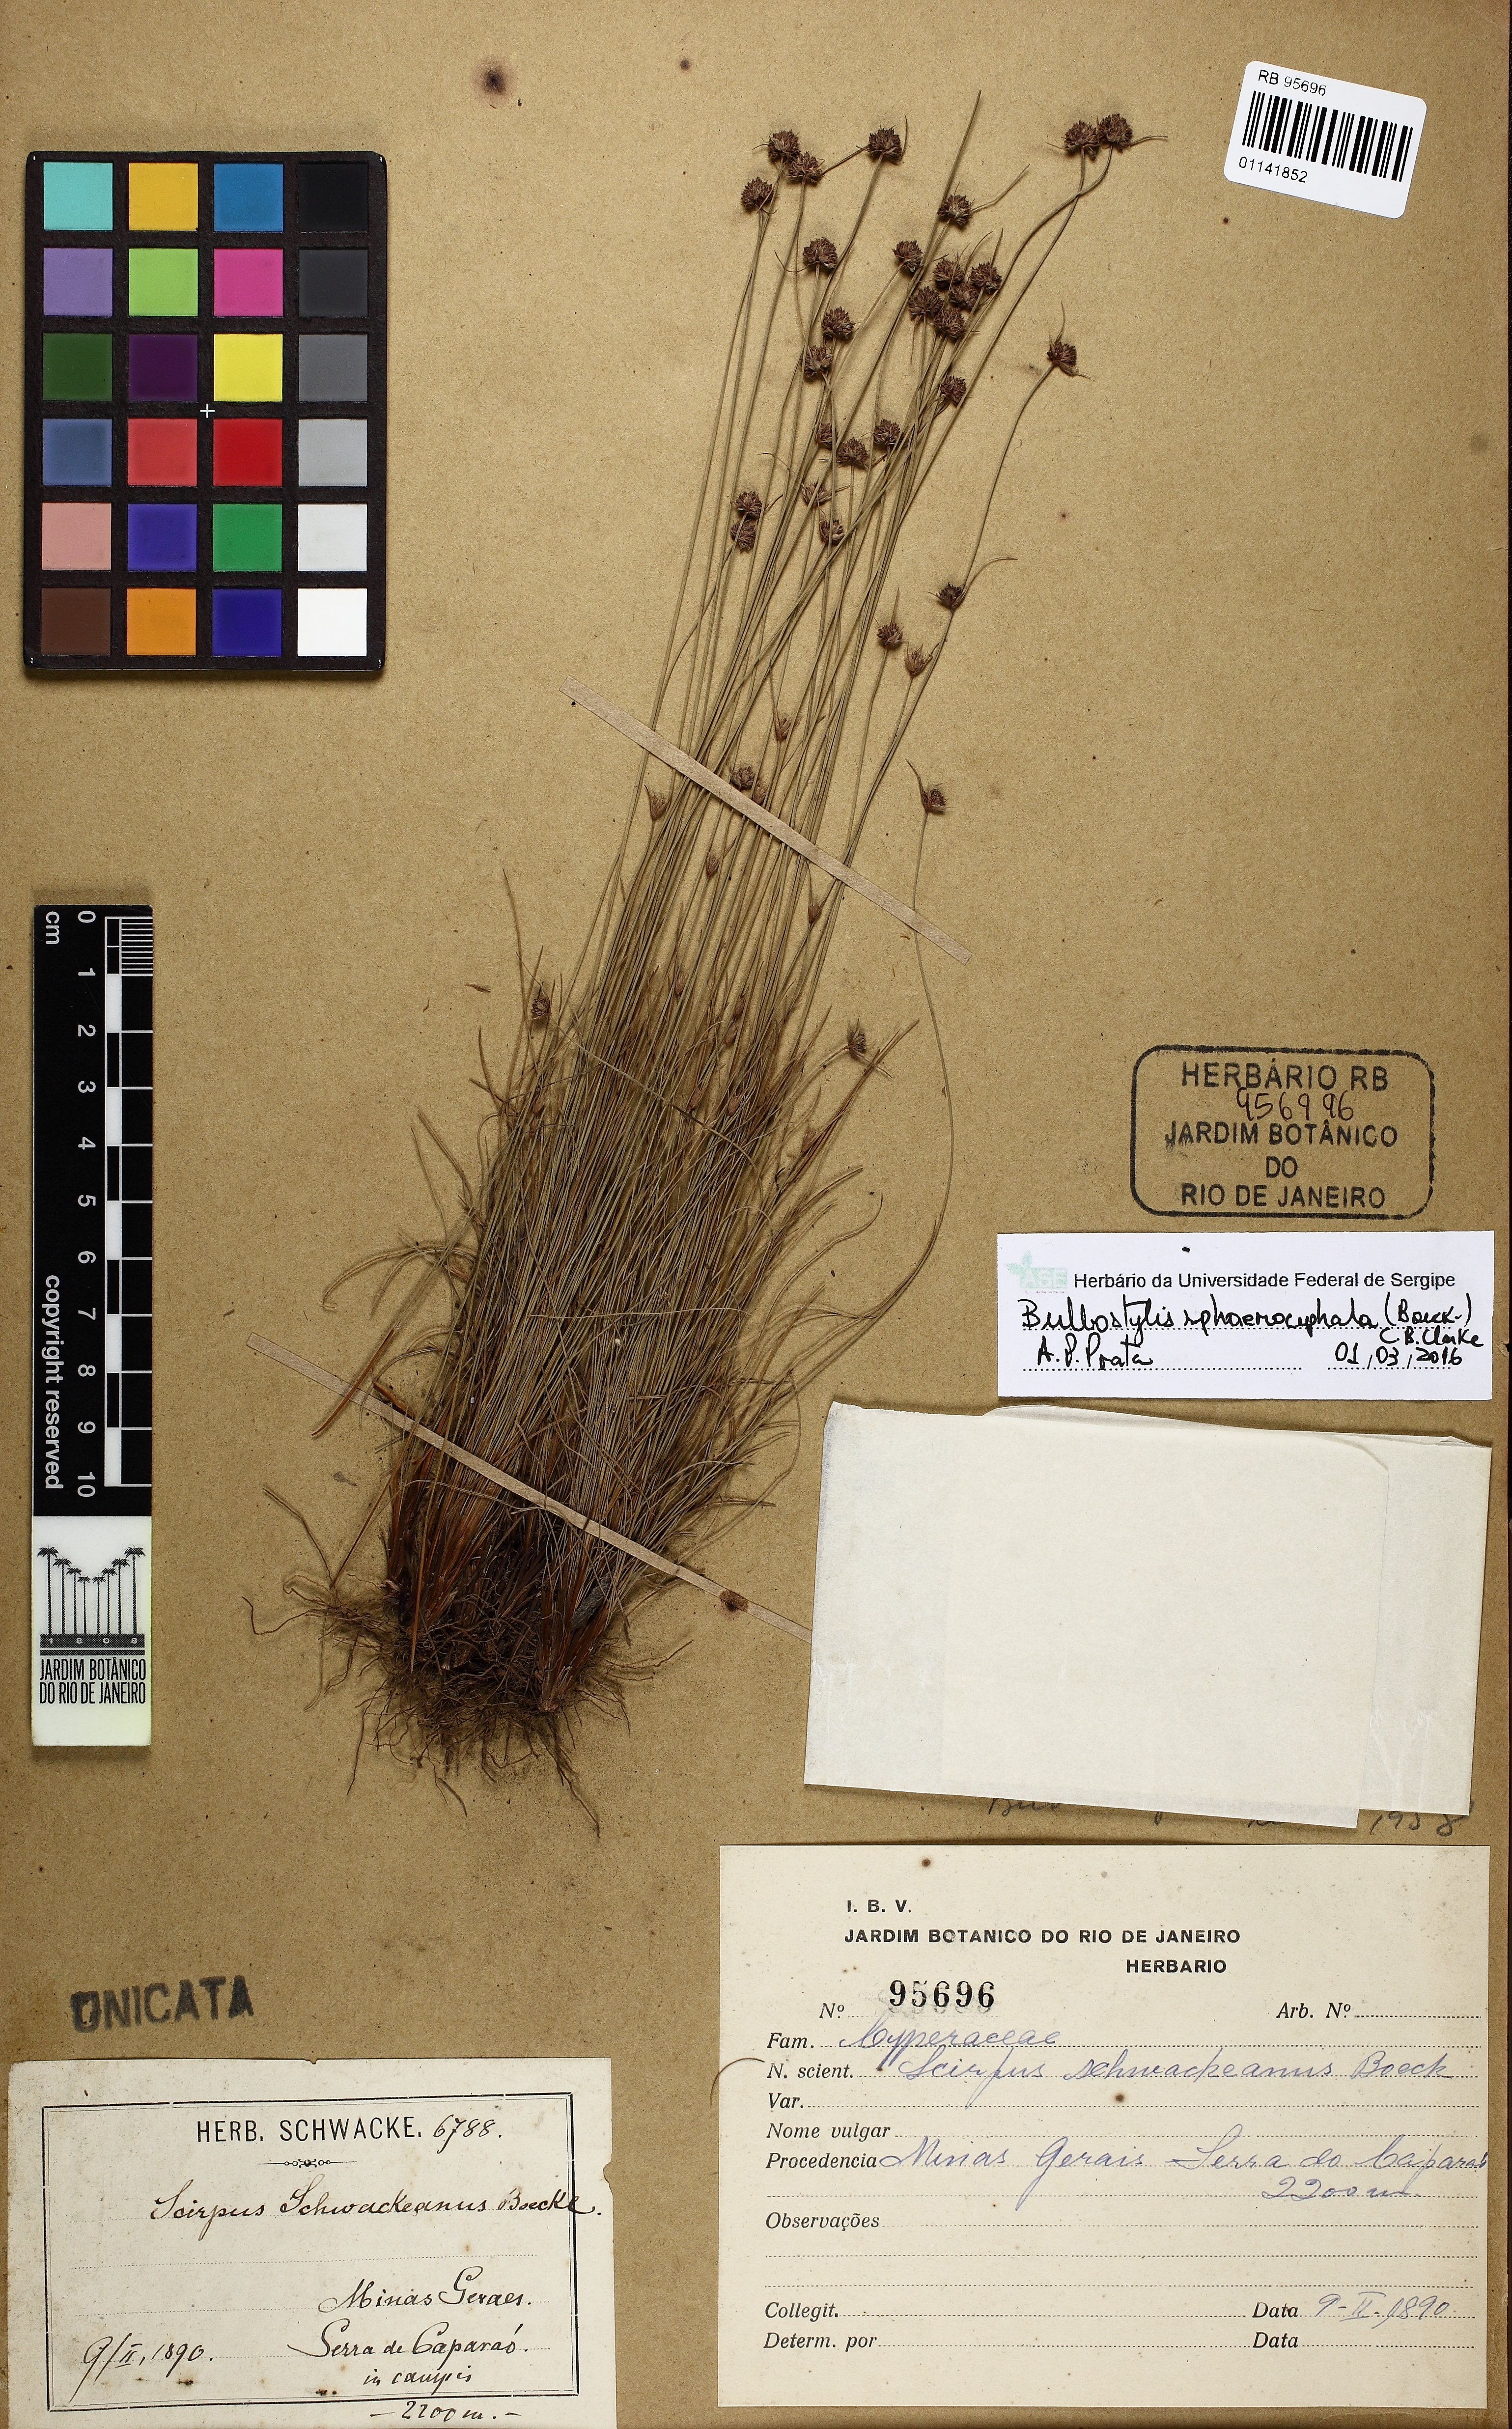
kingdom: Plantae
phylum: Tracheophyta
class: Liliopsida
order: Poales
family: Cyperaceae
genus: Bulbostylis
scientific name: Bulbostylis sphaerocephala
